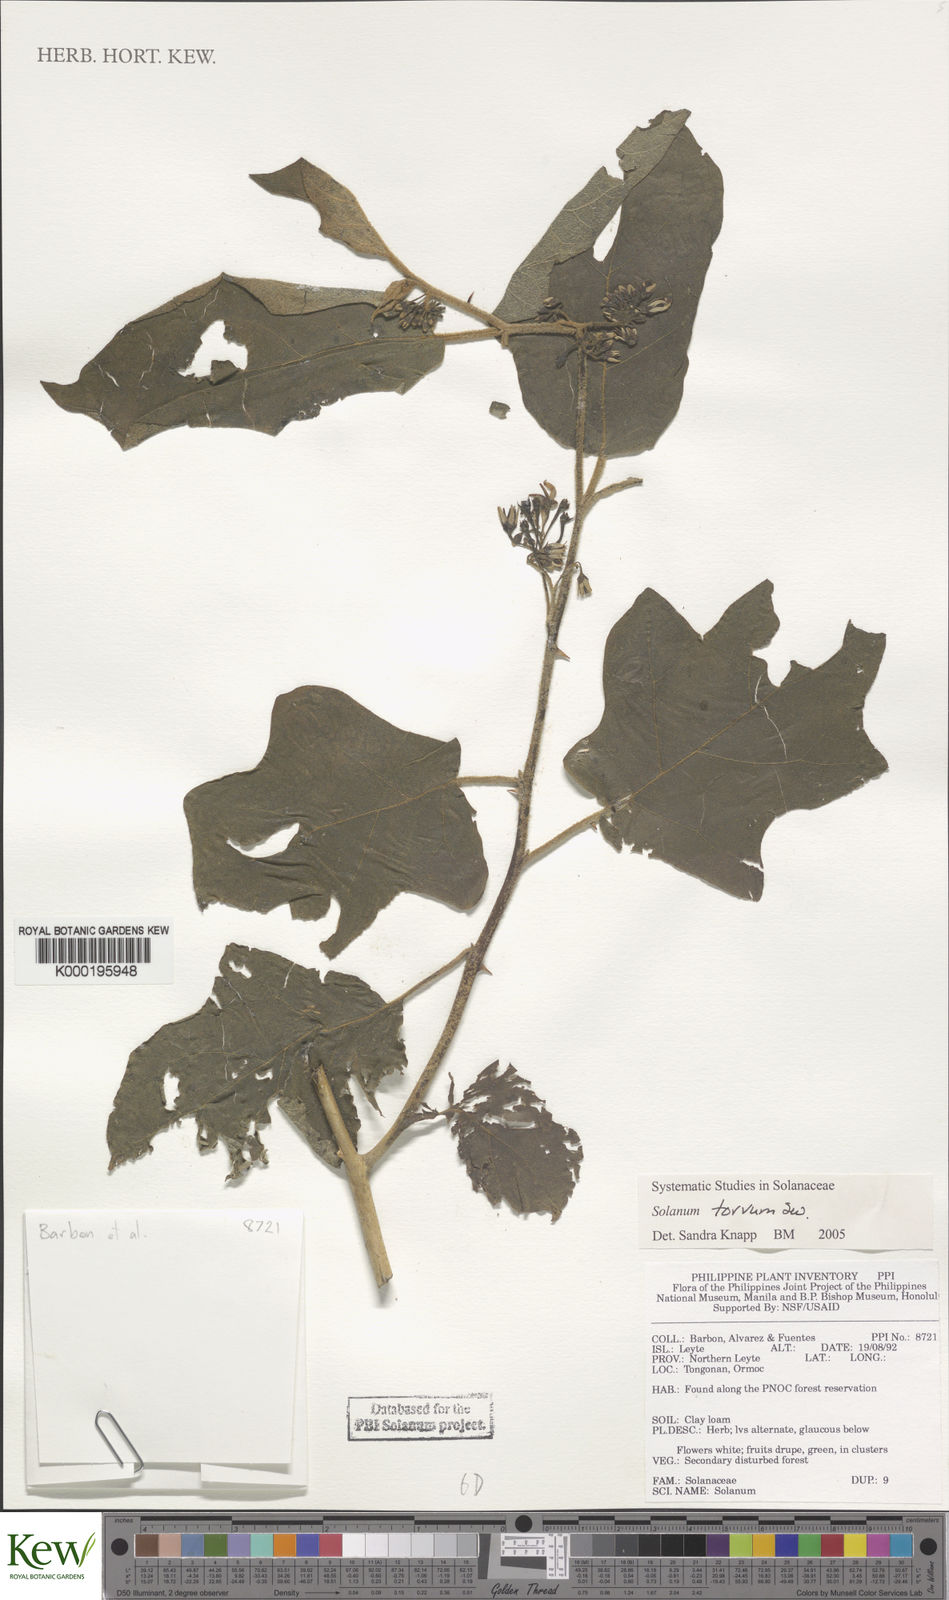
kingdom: Plantae
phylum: Tracheophyta
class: Magnoliopsida
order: Solanales
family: Solanaceae
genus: Solanum
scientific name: Solanum torvum
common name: Turkey berry
